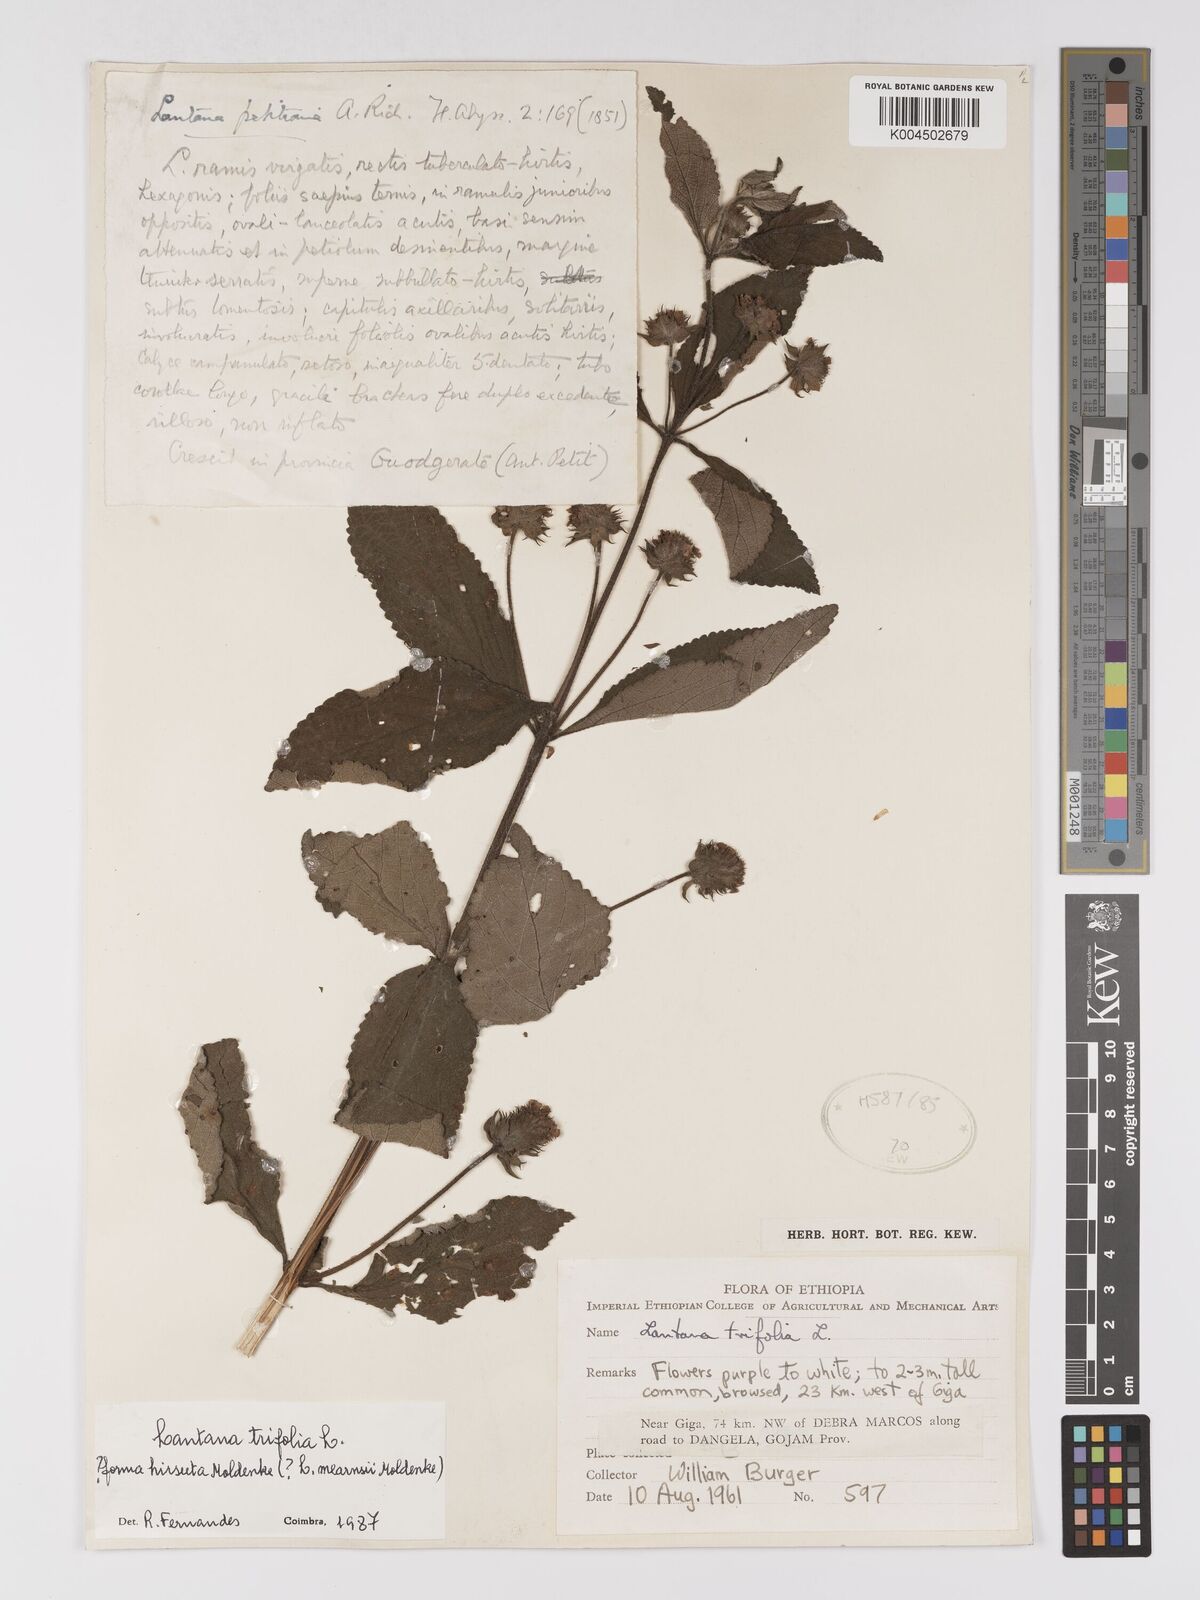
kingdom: Plantae
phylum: Tracheophyta
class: Magnoliopsida
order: Lamiales
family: Verbenaceae
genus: Lantana
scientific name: Lantana trifolia
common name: Sweet-sage
